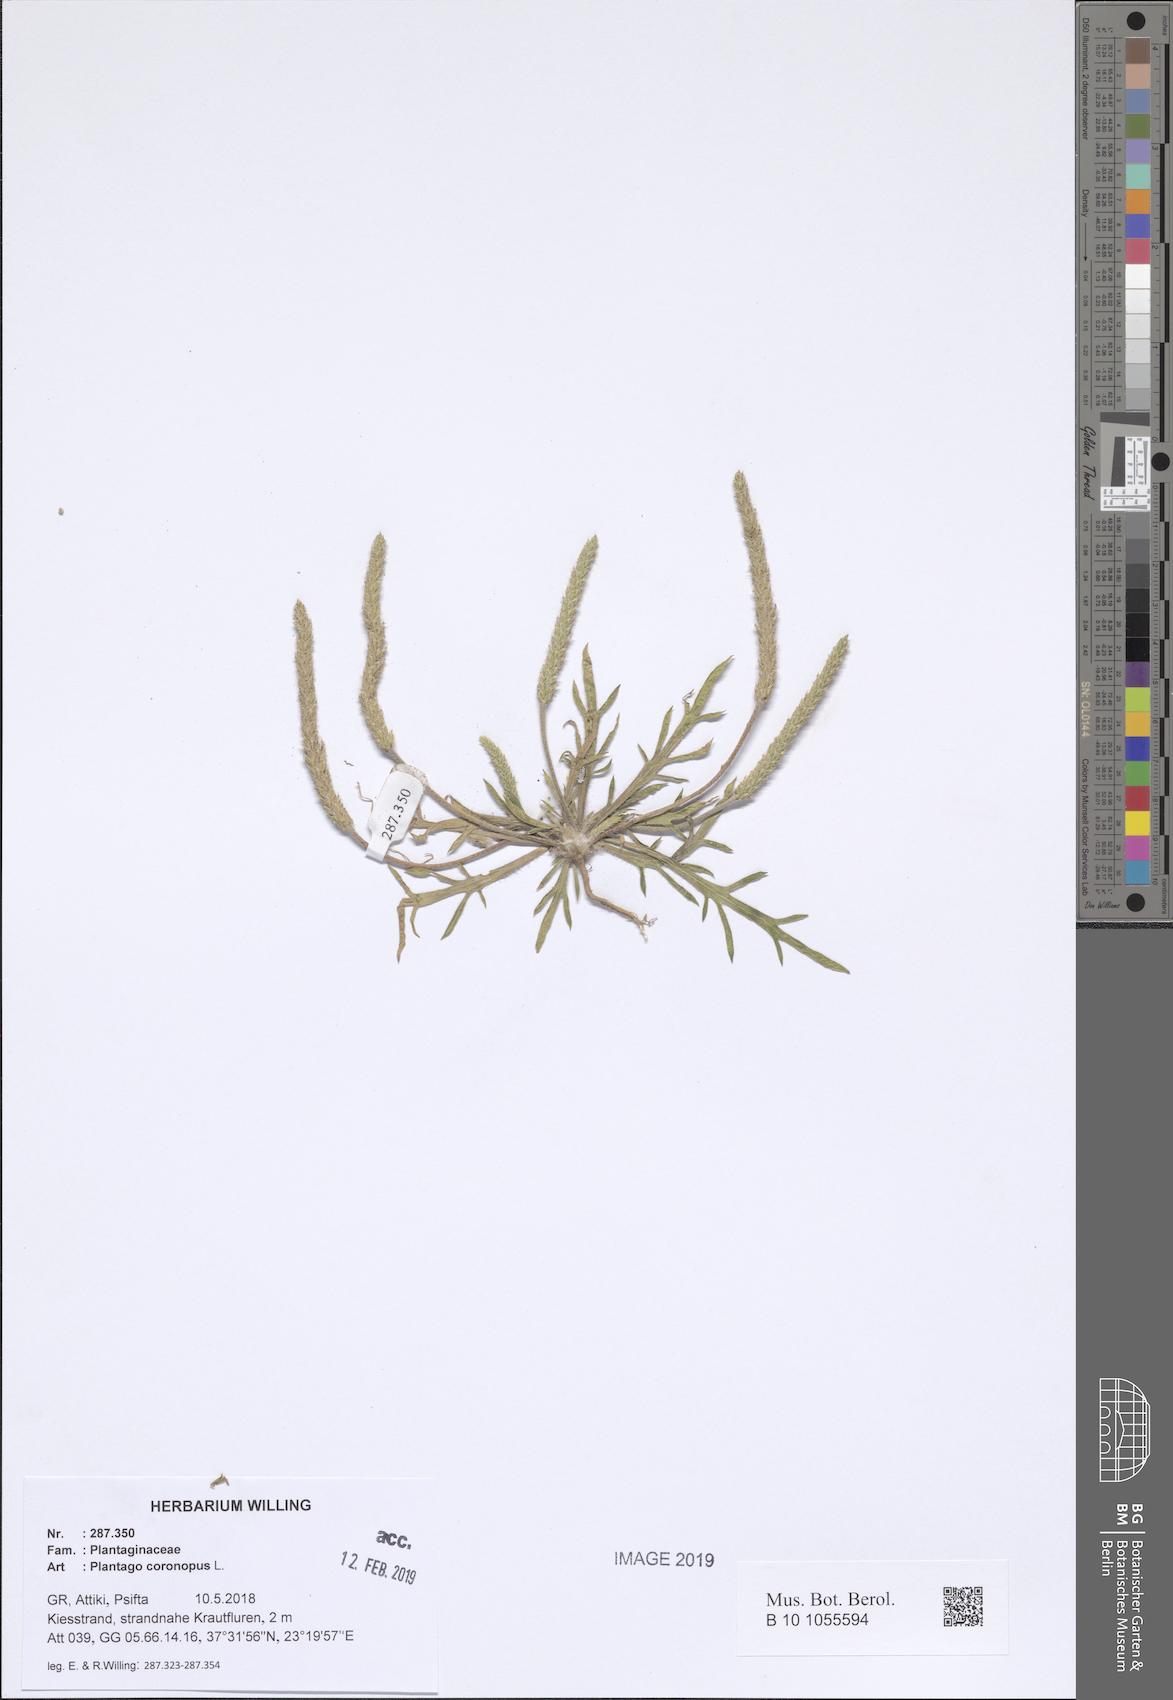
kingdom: Plantae
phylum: Tracheophyta
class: Magnoliopsida
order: Lamiales
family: Plantaginaceae
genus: Plantago
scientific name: Plantago coronopus
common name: Buck's-horn plantain
